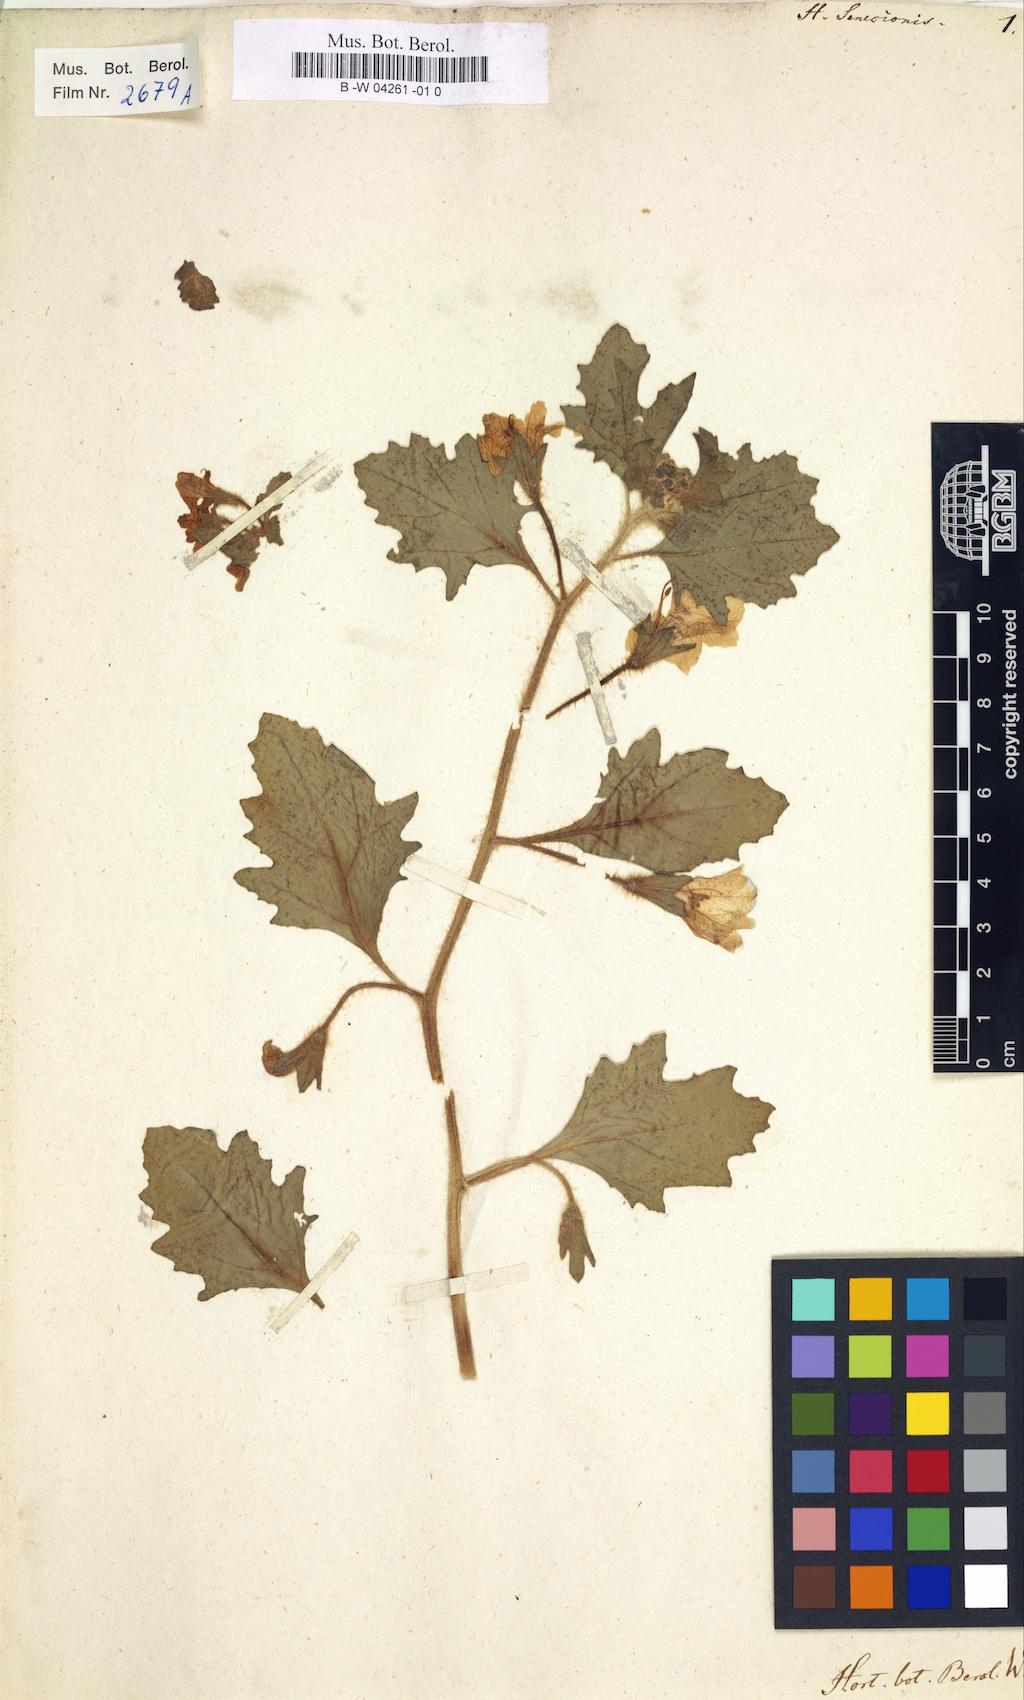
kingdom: Plantae
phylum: Tracheophyta
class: Magnoliopsida
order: Solanales
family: Solanaceae
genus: Hyoscyamus
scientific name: Hyoscyamus senecionis
